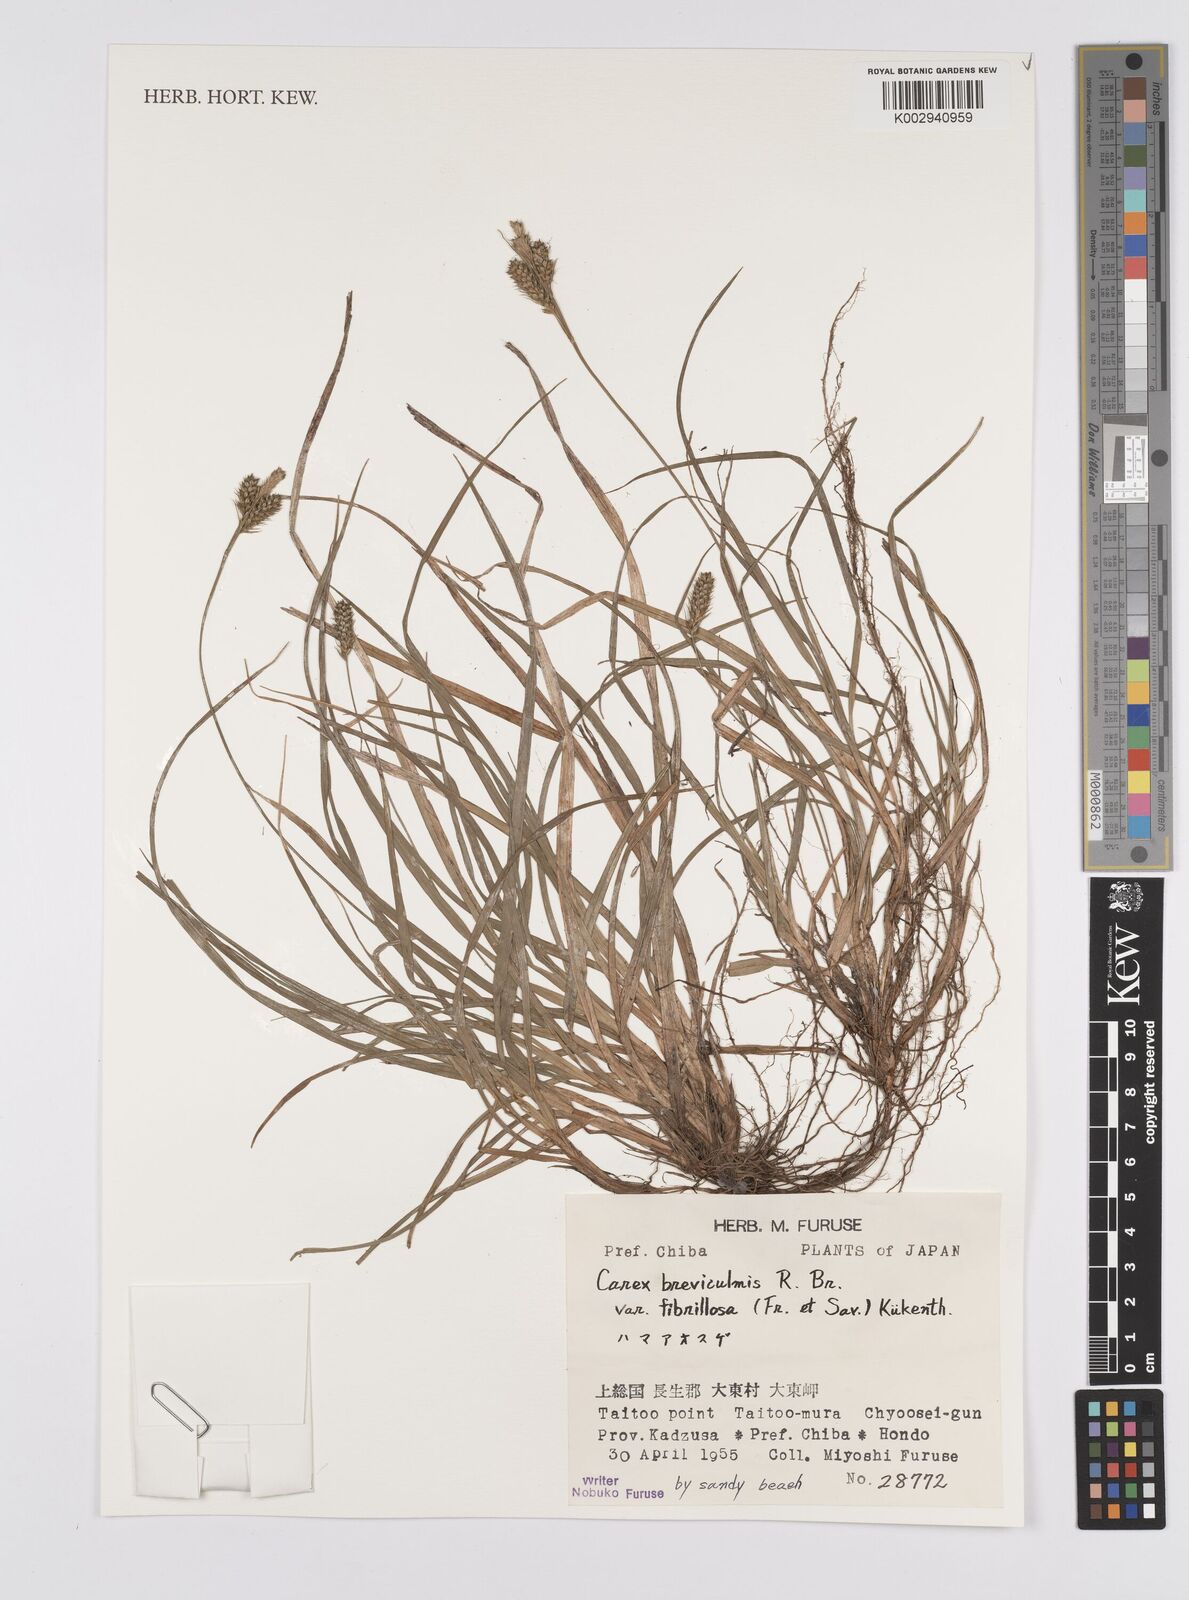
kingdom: Plantae
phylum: Tracheophyta
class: Liliopsida
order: Poales
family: Cyperaceae
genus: Carex
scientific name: Carex fibrillosa
